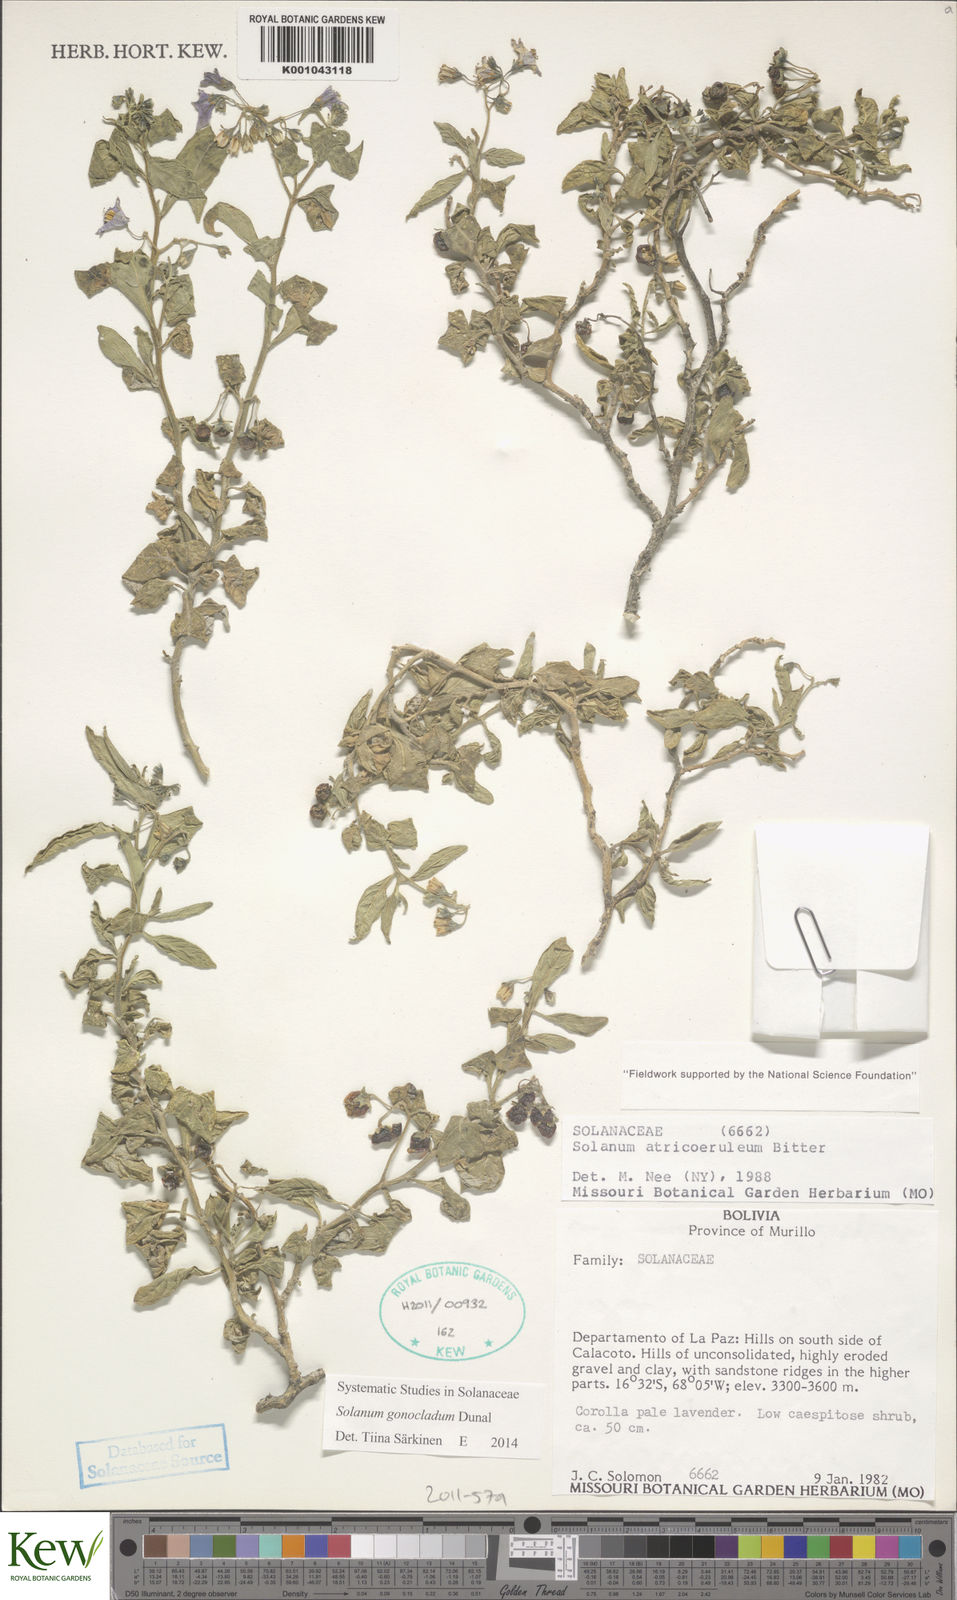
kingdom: Plantae
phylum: Tracheophyta
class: Magnoliopsida
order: Solanales
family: Solanaceae
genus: Solanum
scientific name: Solanum gonocladum
